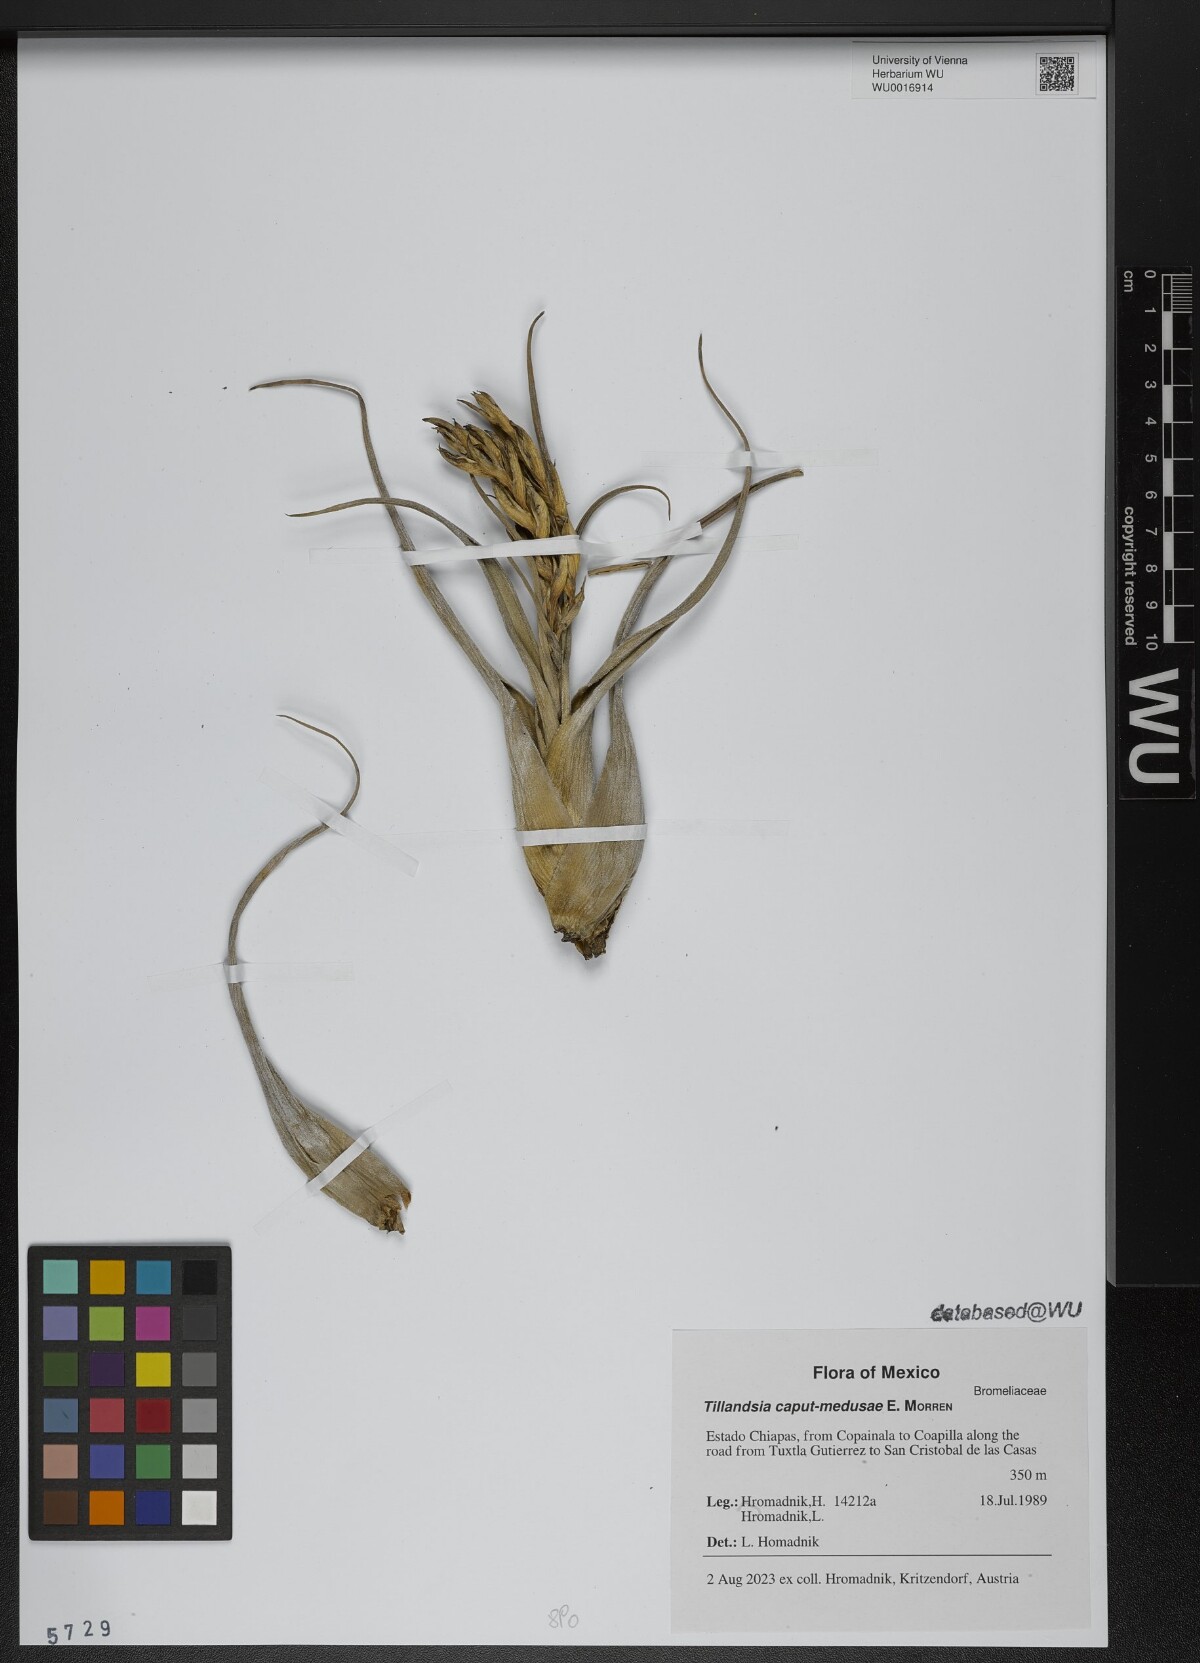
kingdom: Plantae
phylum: Tracheophyta
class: Liliopsida
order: Poales
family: Bromeliaceae
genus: Tillandsia
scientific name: Tillandsia caput-medusae
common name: Octopus plant
